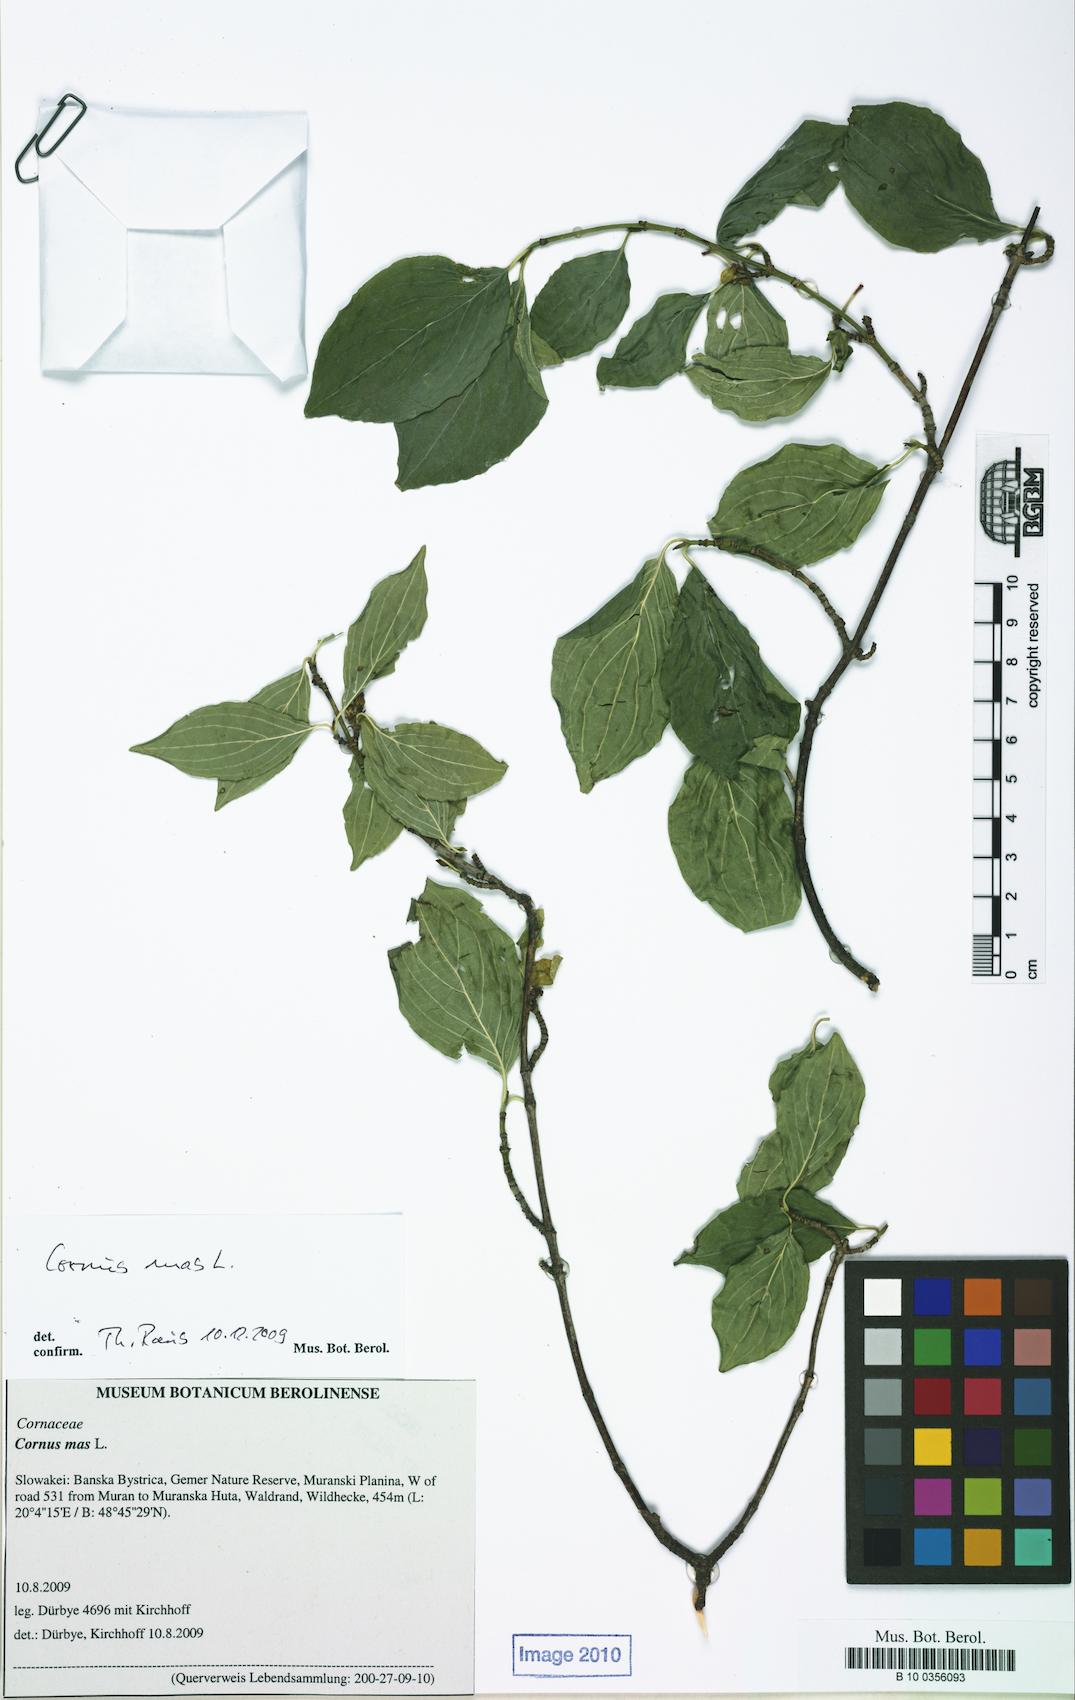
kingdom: Plantae
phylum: Tracheophyta
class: Magnoliopsida
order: Caryophyllales
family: Amaranthaceae
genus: Corispermum
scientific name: Corispermum pallasii
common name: Siberian bugseed
